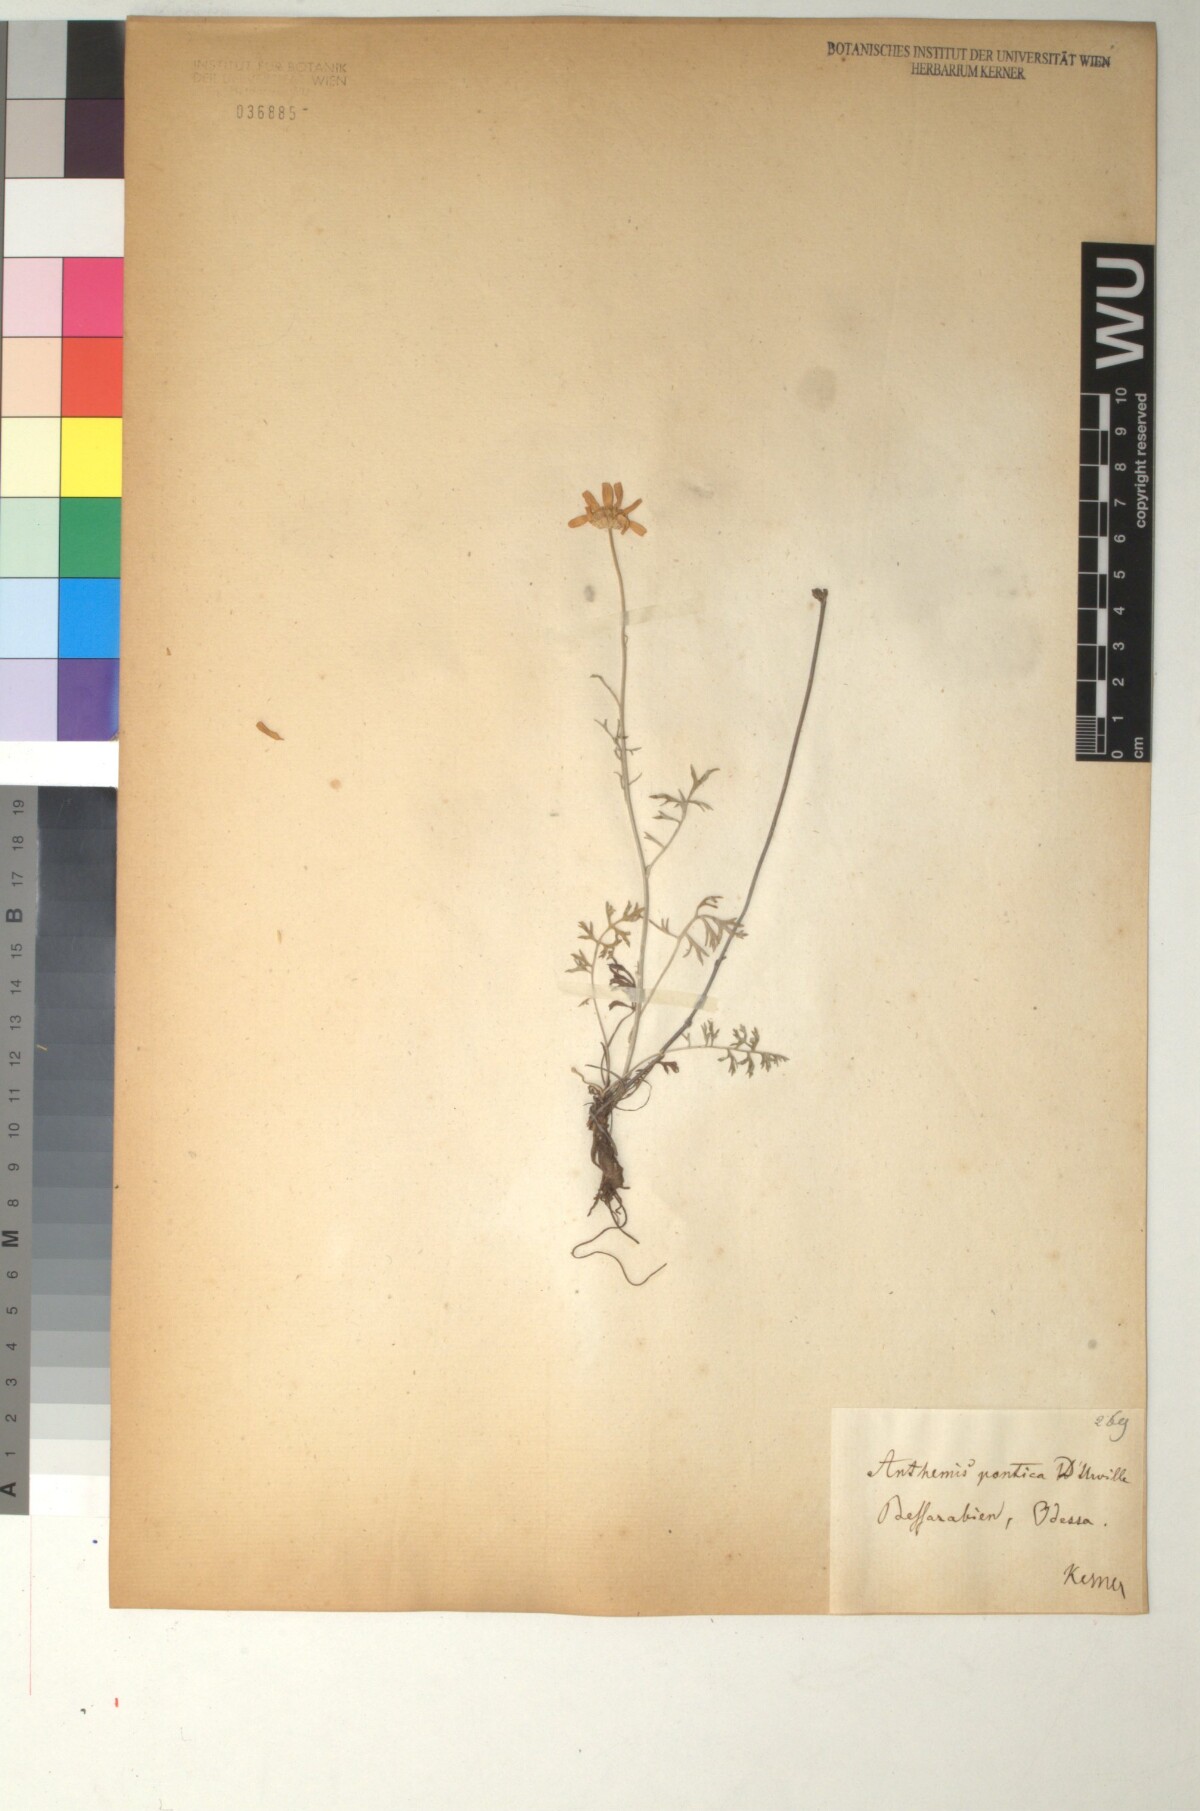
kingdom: Plantae
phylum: Tracheophyta
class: Magnoliopsida
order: Asterales
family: Asteraceae
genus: Anthemis
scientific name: Anthemis cretica
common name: Mountain dog-daisy
